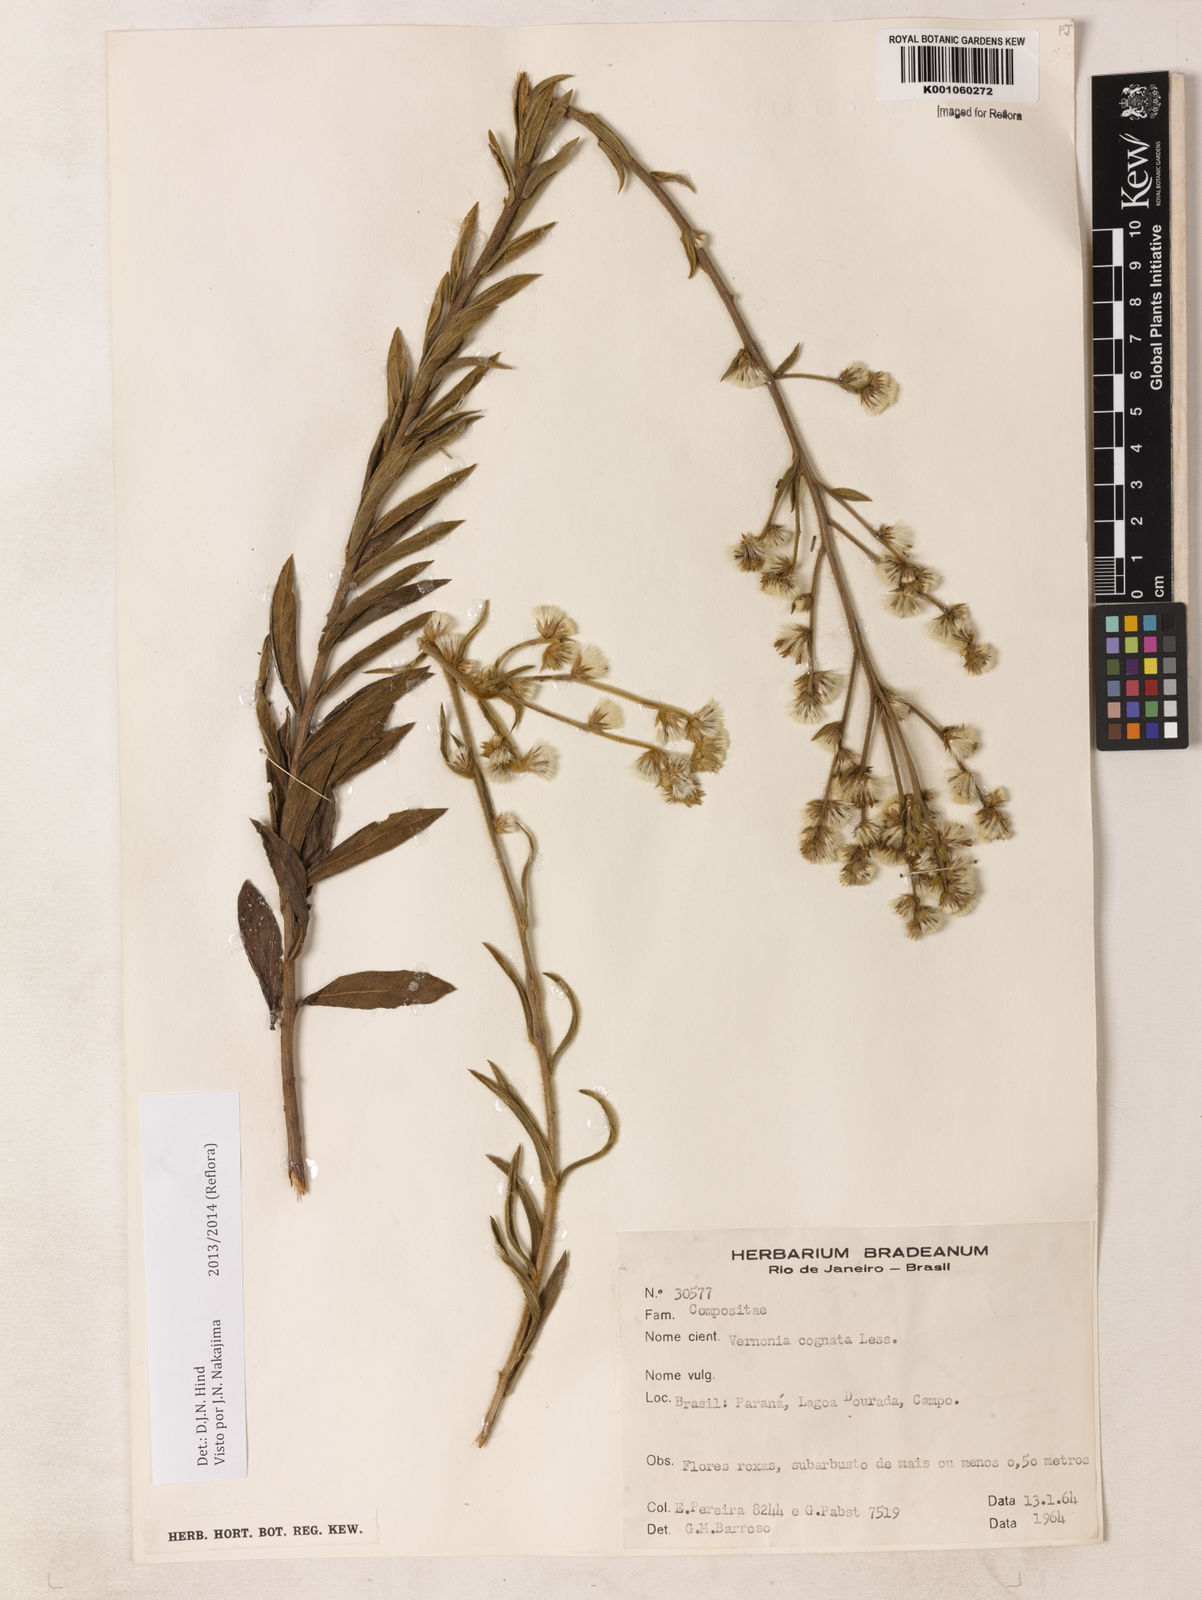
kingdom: Plantae
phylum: Tracheophyta
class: Magnoliopsida
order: Asterales
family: Asteraceae
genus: Chrysolaena
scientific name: Chrysolaena cognata
